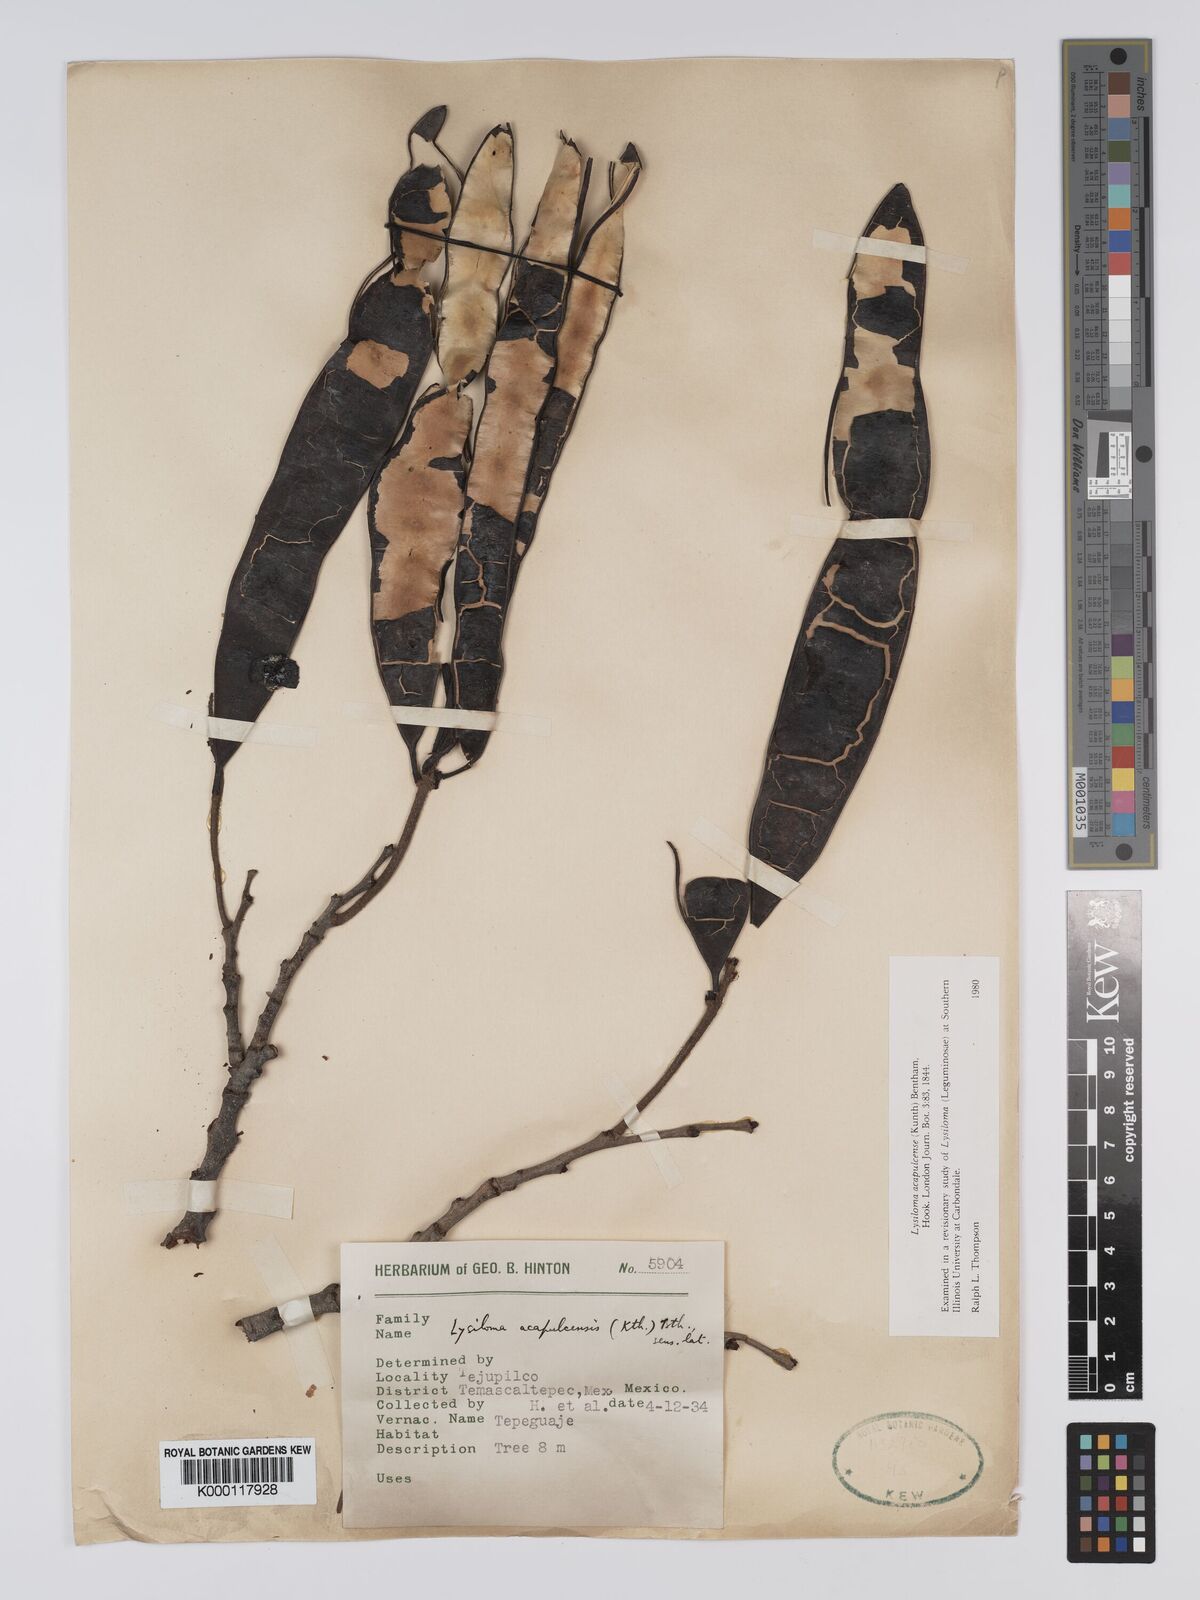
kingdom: Plantae
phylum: Tracheophyta
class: Magnoliopsida
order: Fabales
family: Fabaceae
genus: Lysiloma
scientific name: Lysiloma acapulcense
